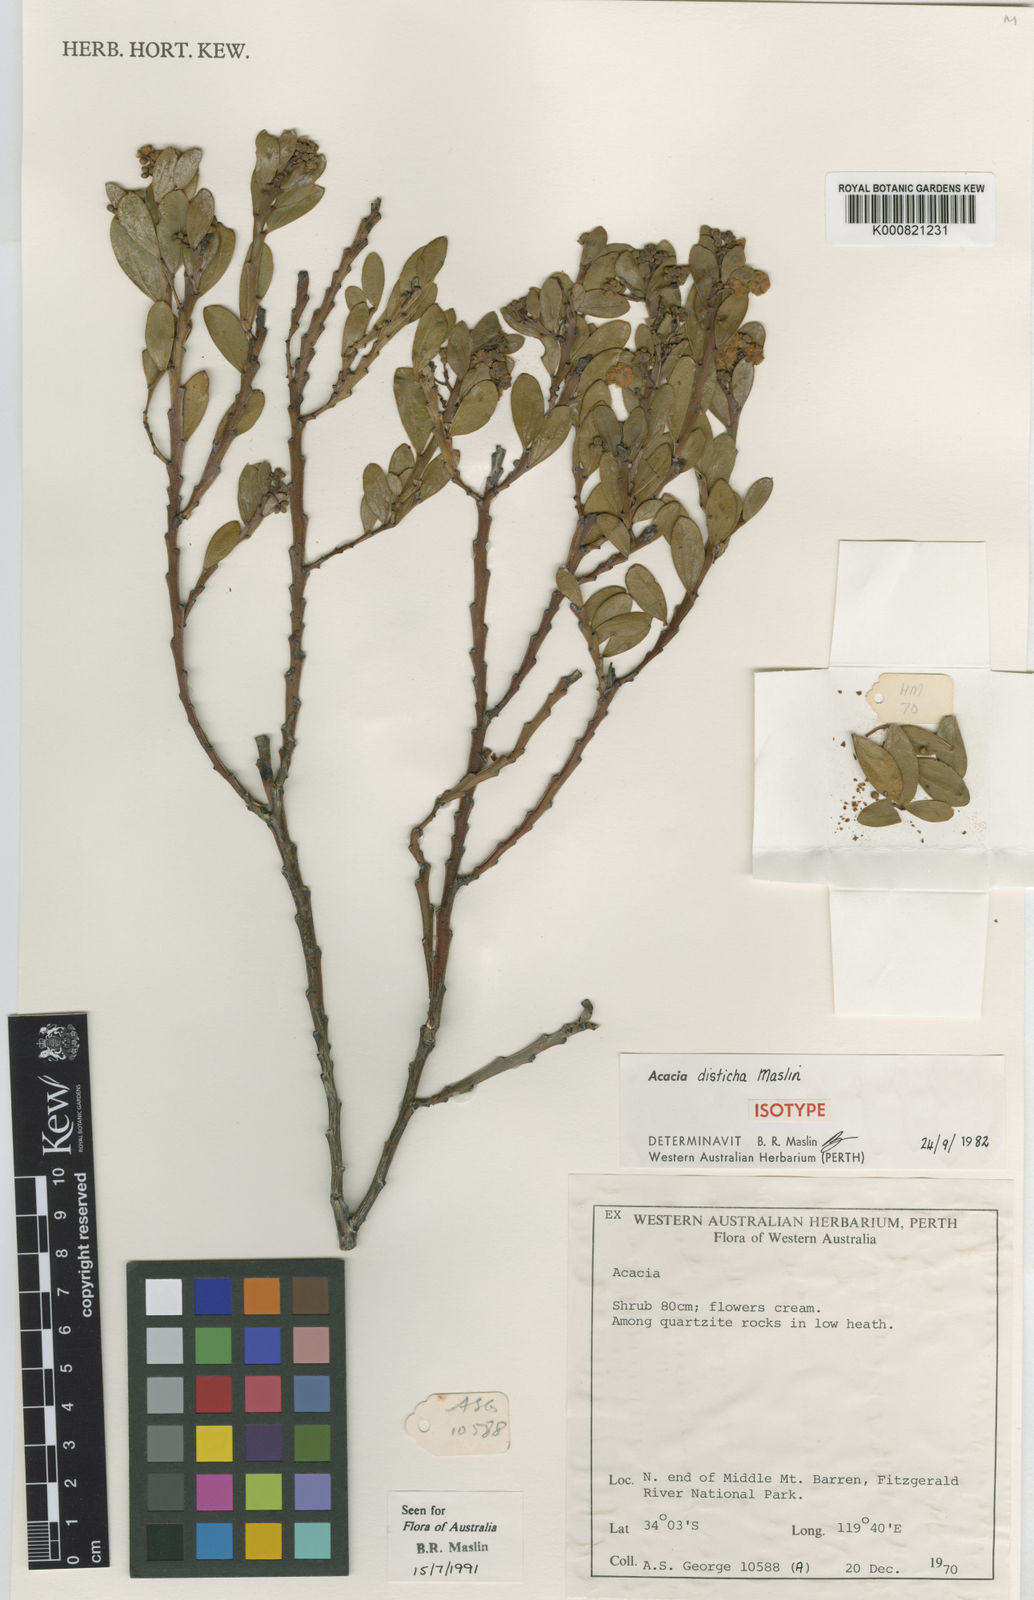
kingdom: Plantae
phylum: Tracheophyta
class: Magnoliopsida
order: Fabales
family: Fabaceae
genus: Acacia
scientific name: Acacia disticha
